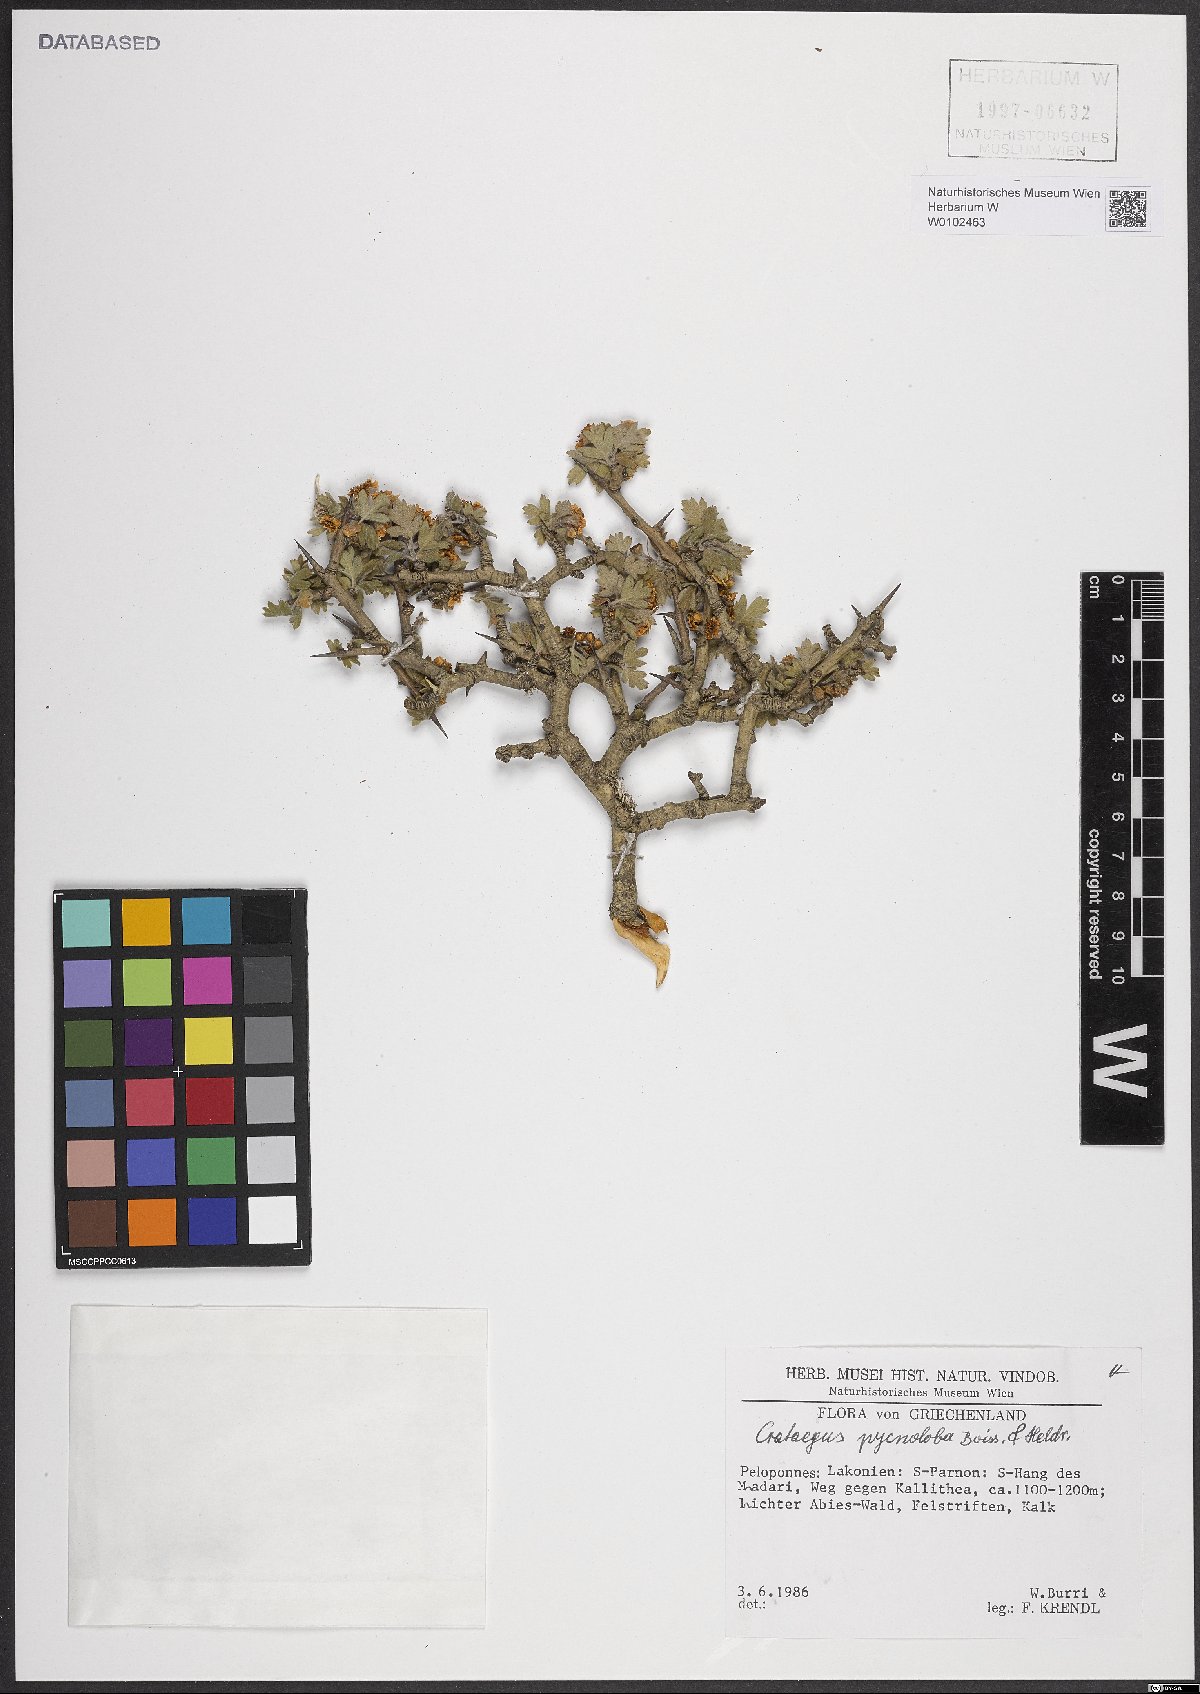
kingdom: Plantae
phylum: Tracheophyta
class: Magnoliopsida
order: Rosales
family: Rosaceae
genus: Crataegus
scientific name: Crataegus pycnoloba
